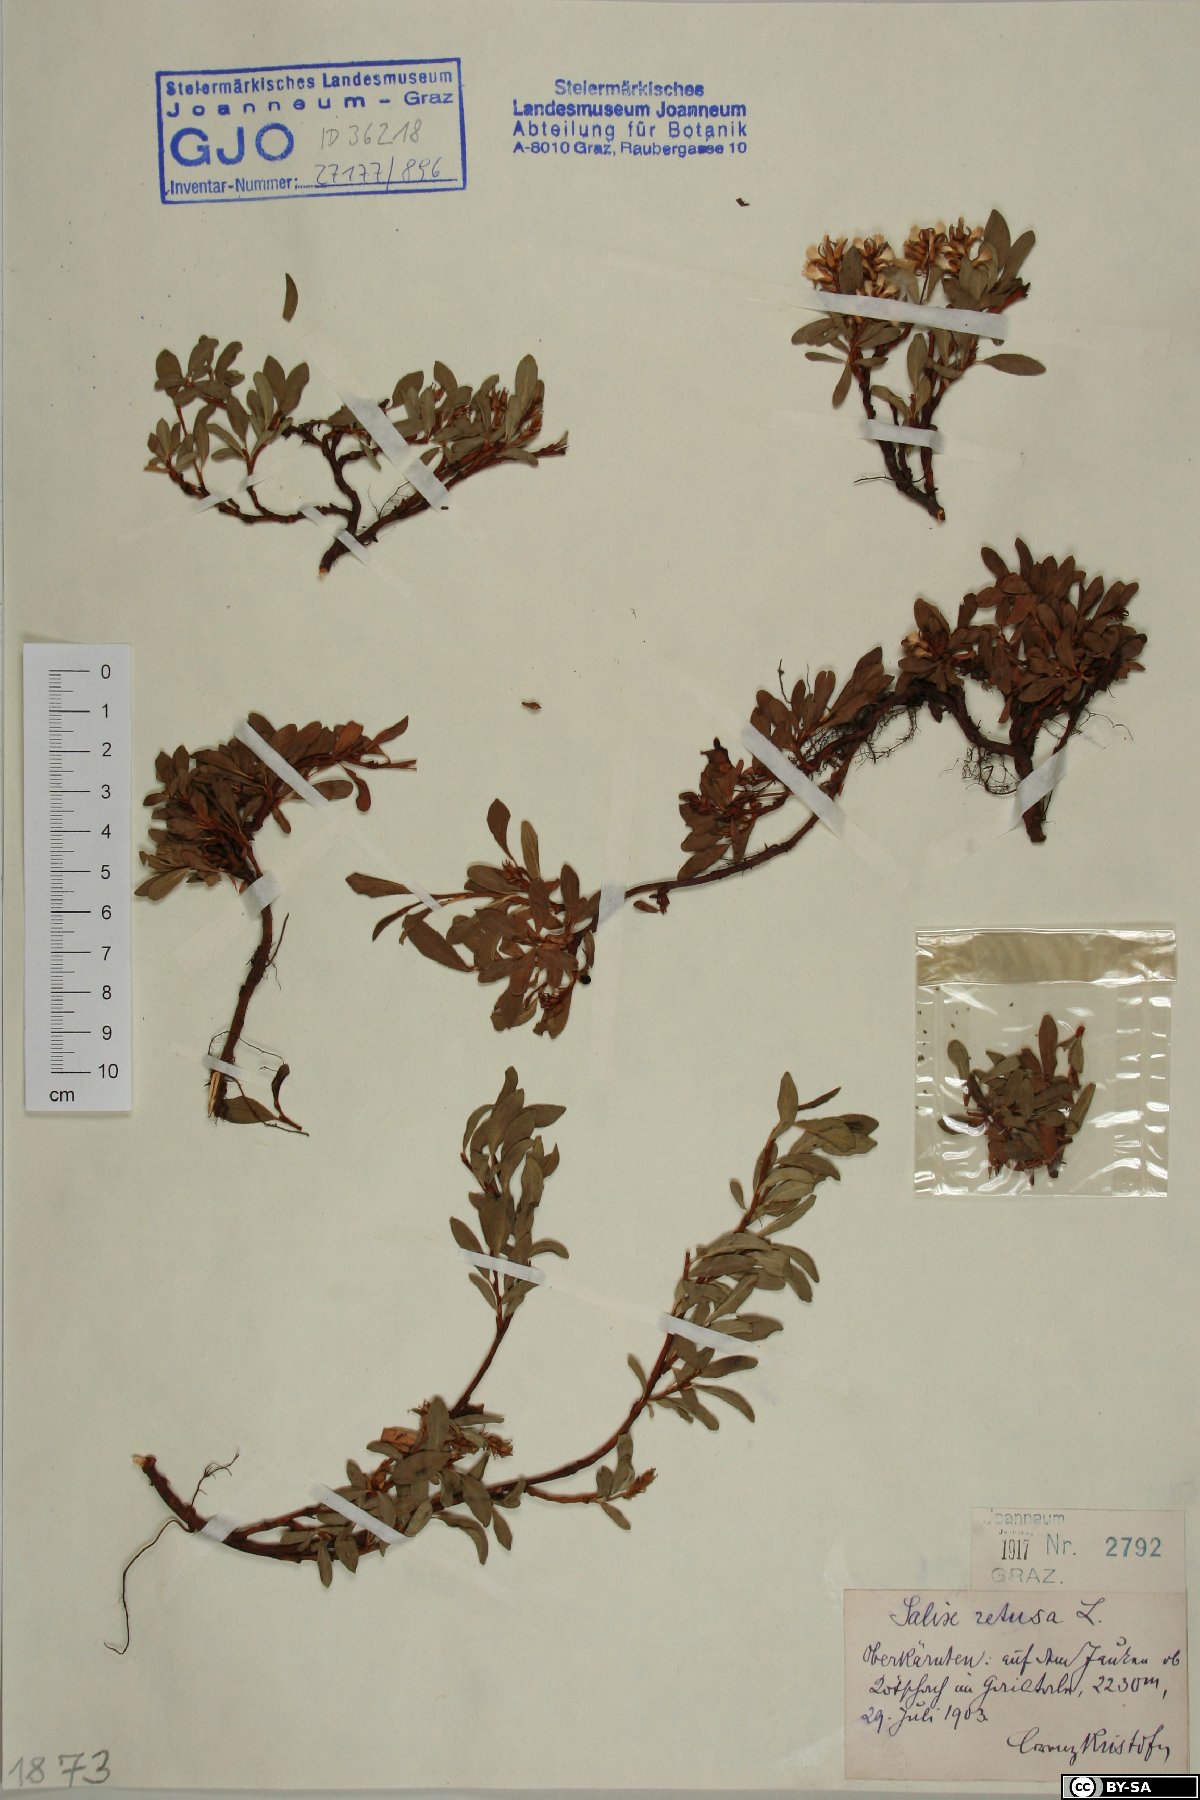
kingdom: Plantae
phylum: Tracheophyta
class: Magnoliopsida
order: Malpighiales
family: Salicaceae
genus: Salix
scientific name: Salix retusa
